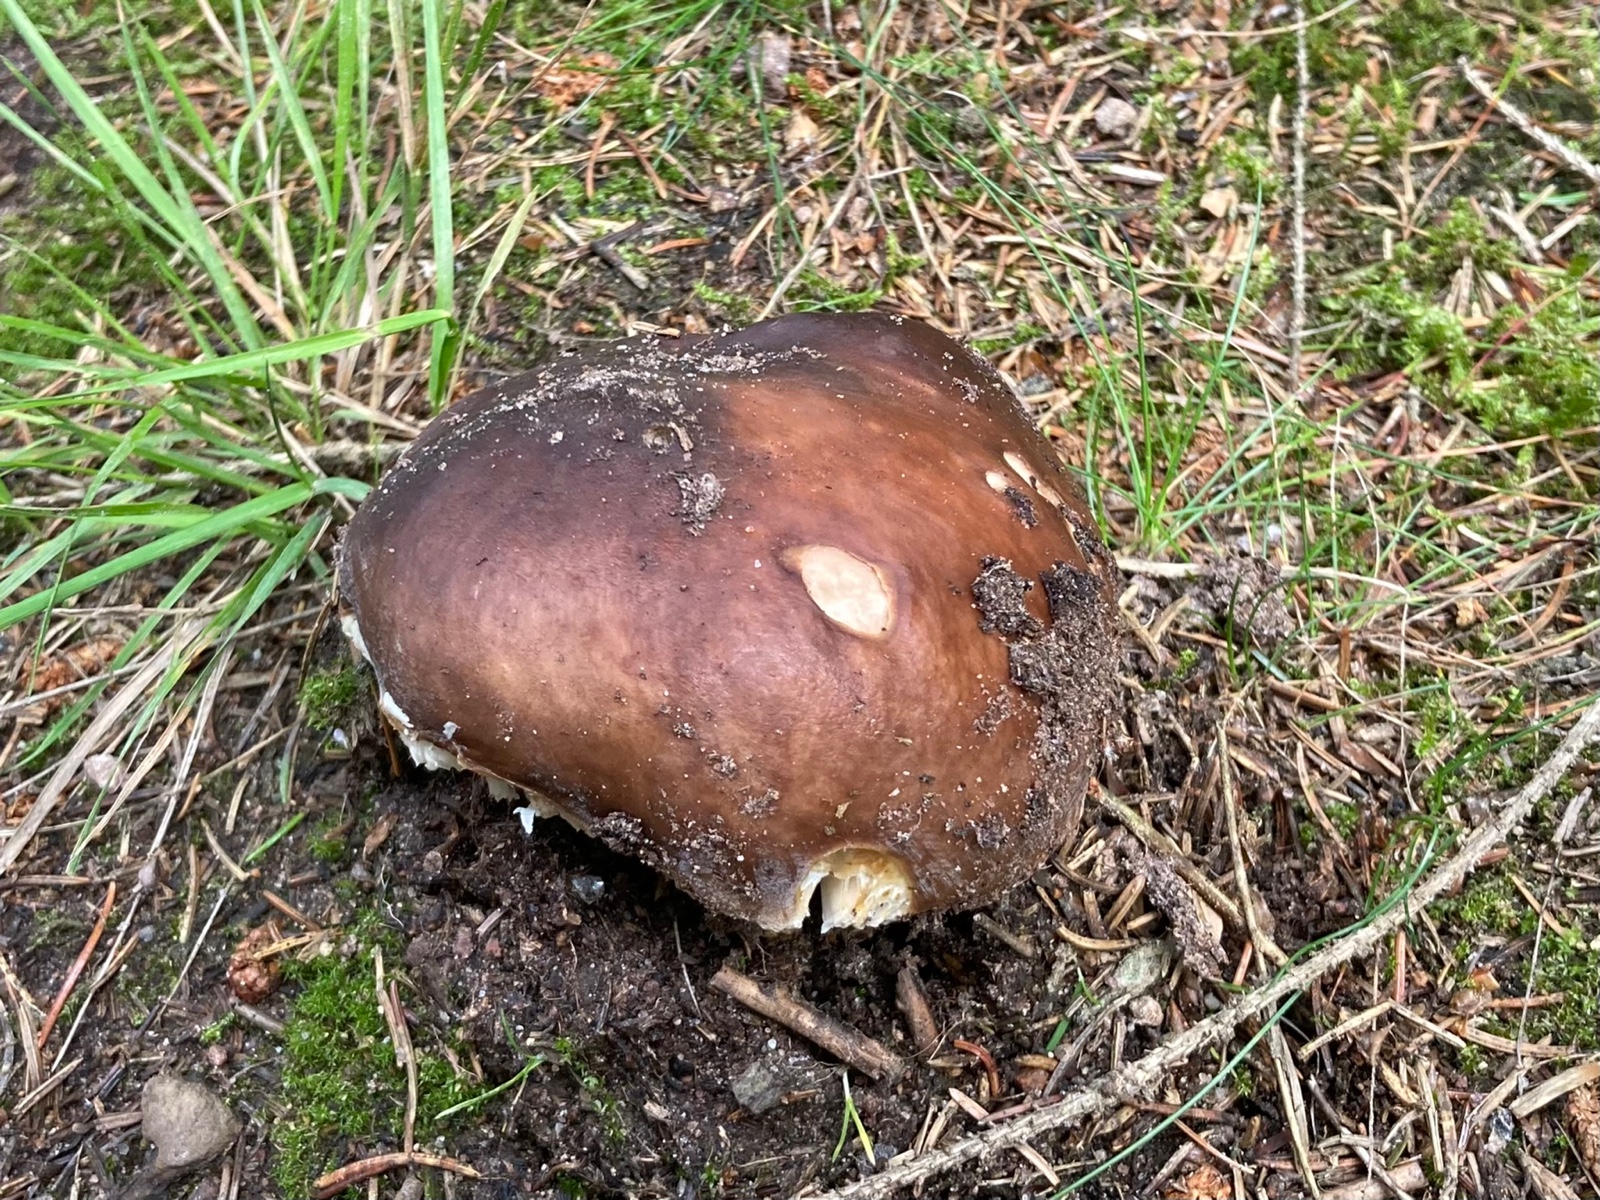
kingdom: Fungi
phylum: Basidiomycota
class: Agaricomycetes
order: Russulales
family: Russulaceae
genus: Russula
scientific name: Russula mustelina
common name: brun skørhat
